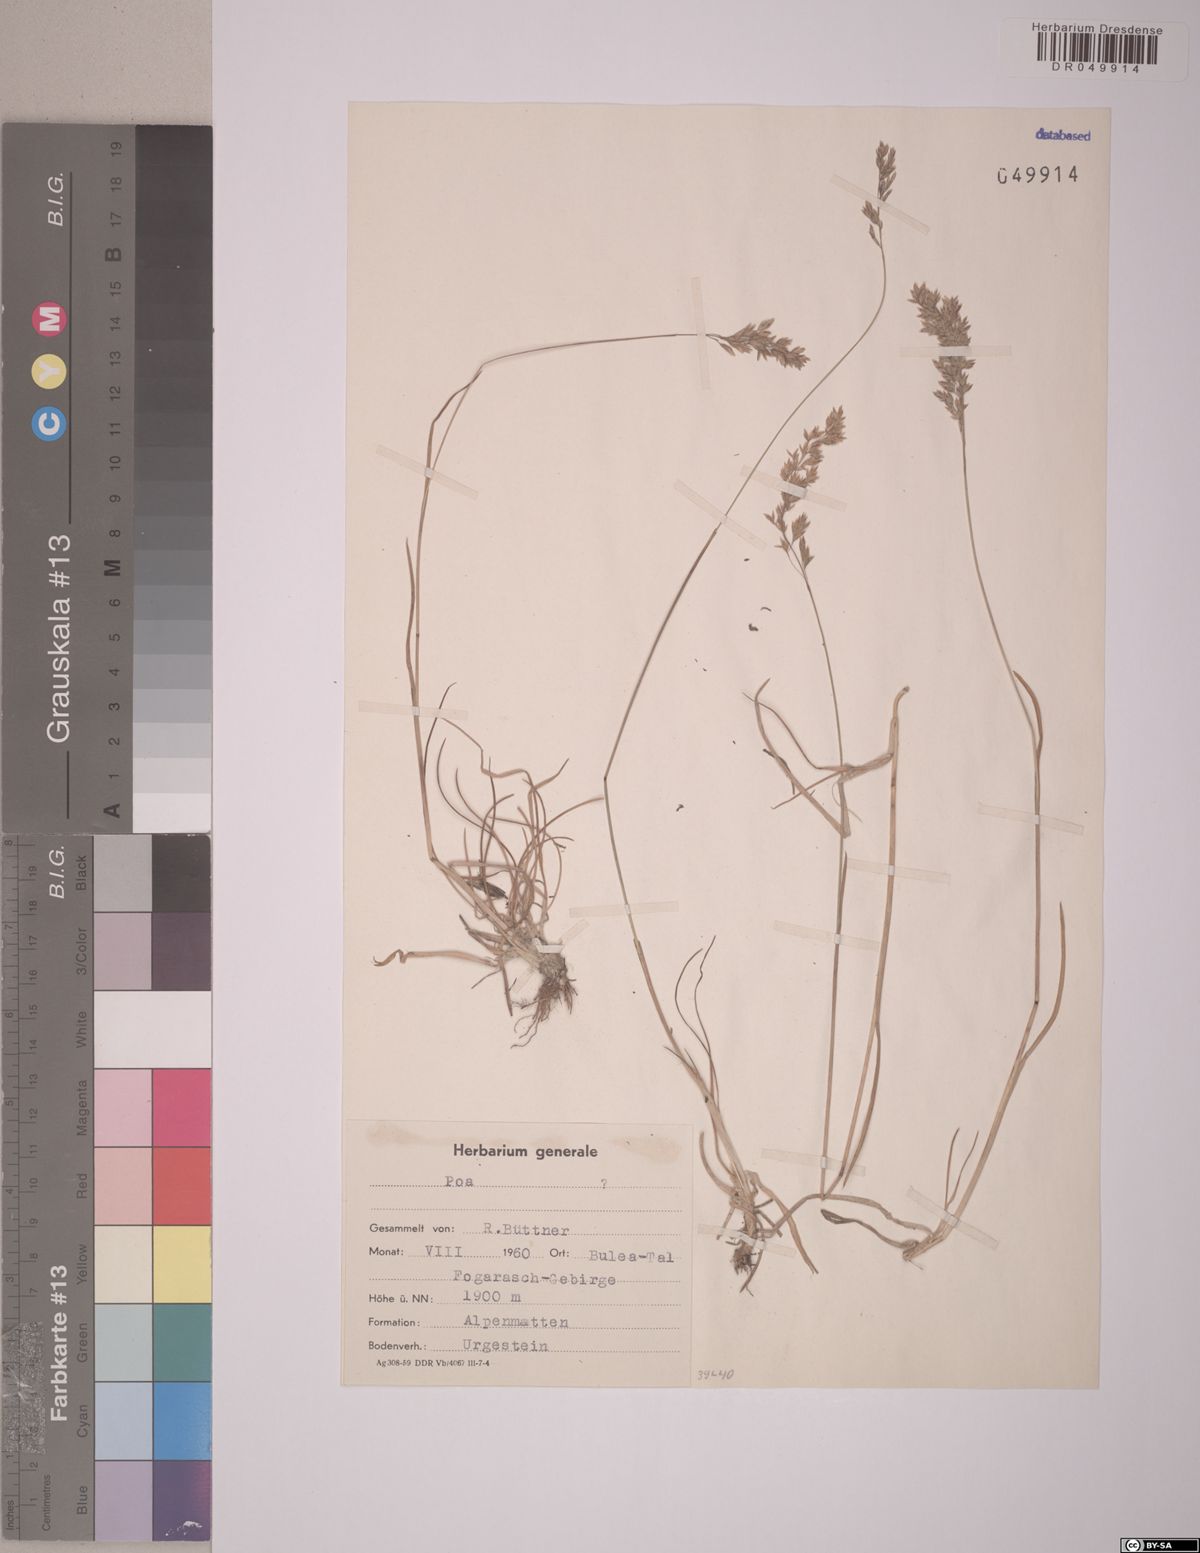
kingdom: Plantae
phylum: Tracheophyta
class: Liliopsida
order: Poales
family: Poaceae
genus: Poa
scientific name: Poa
